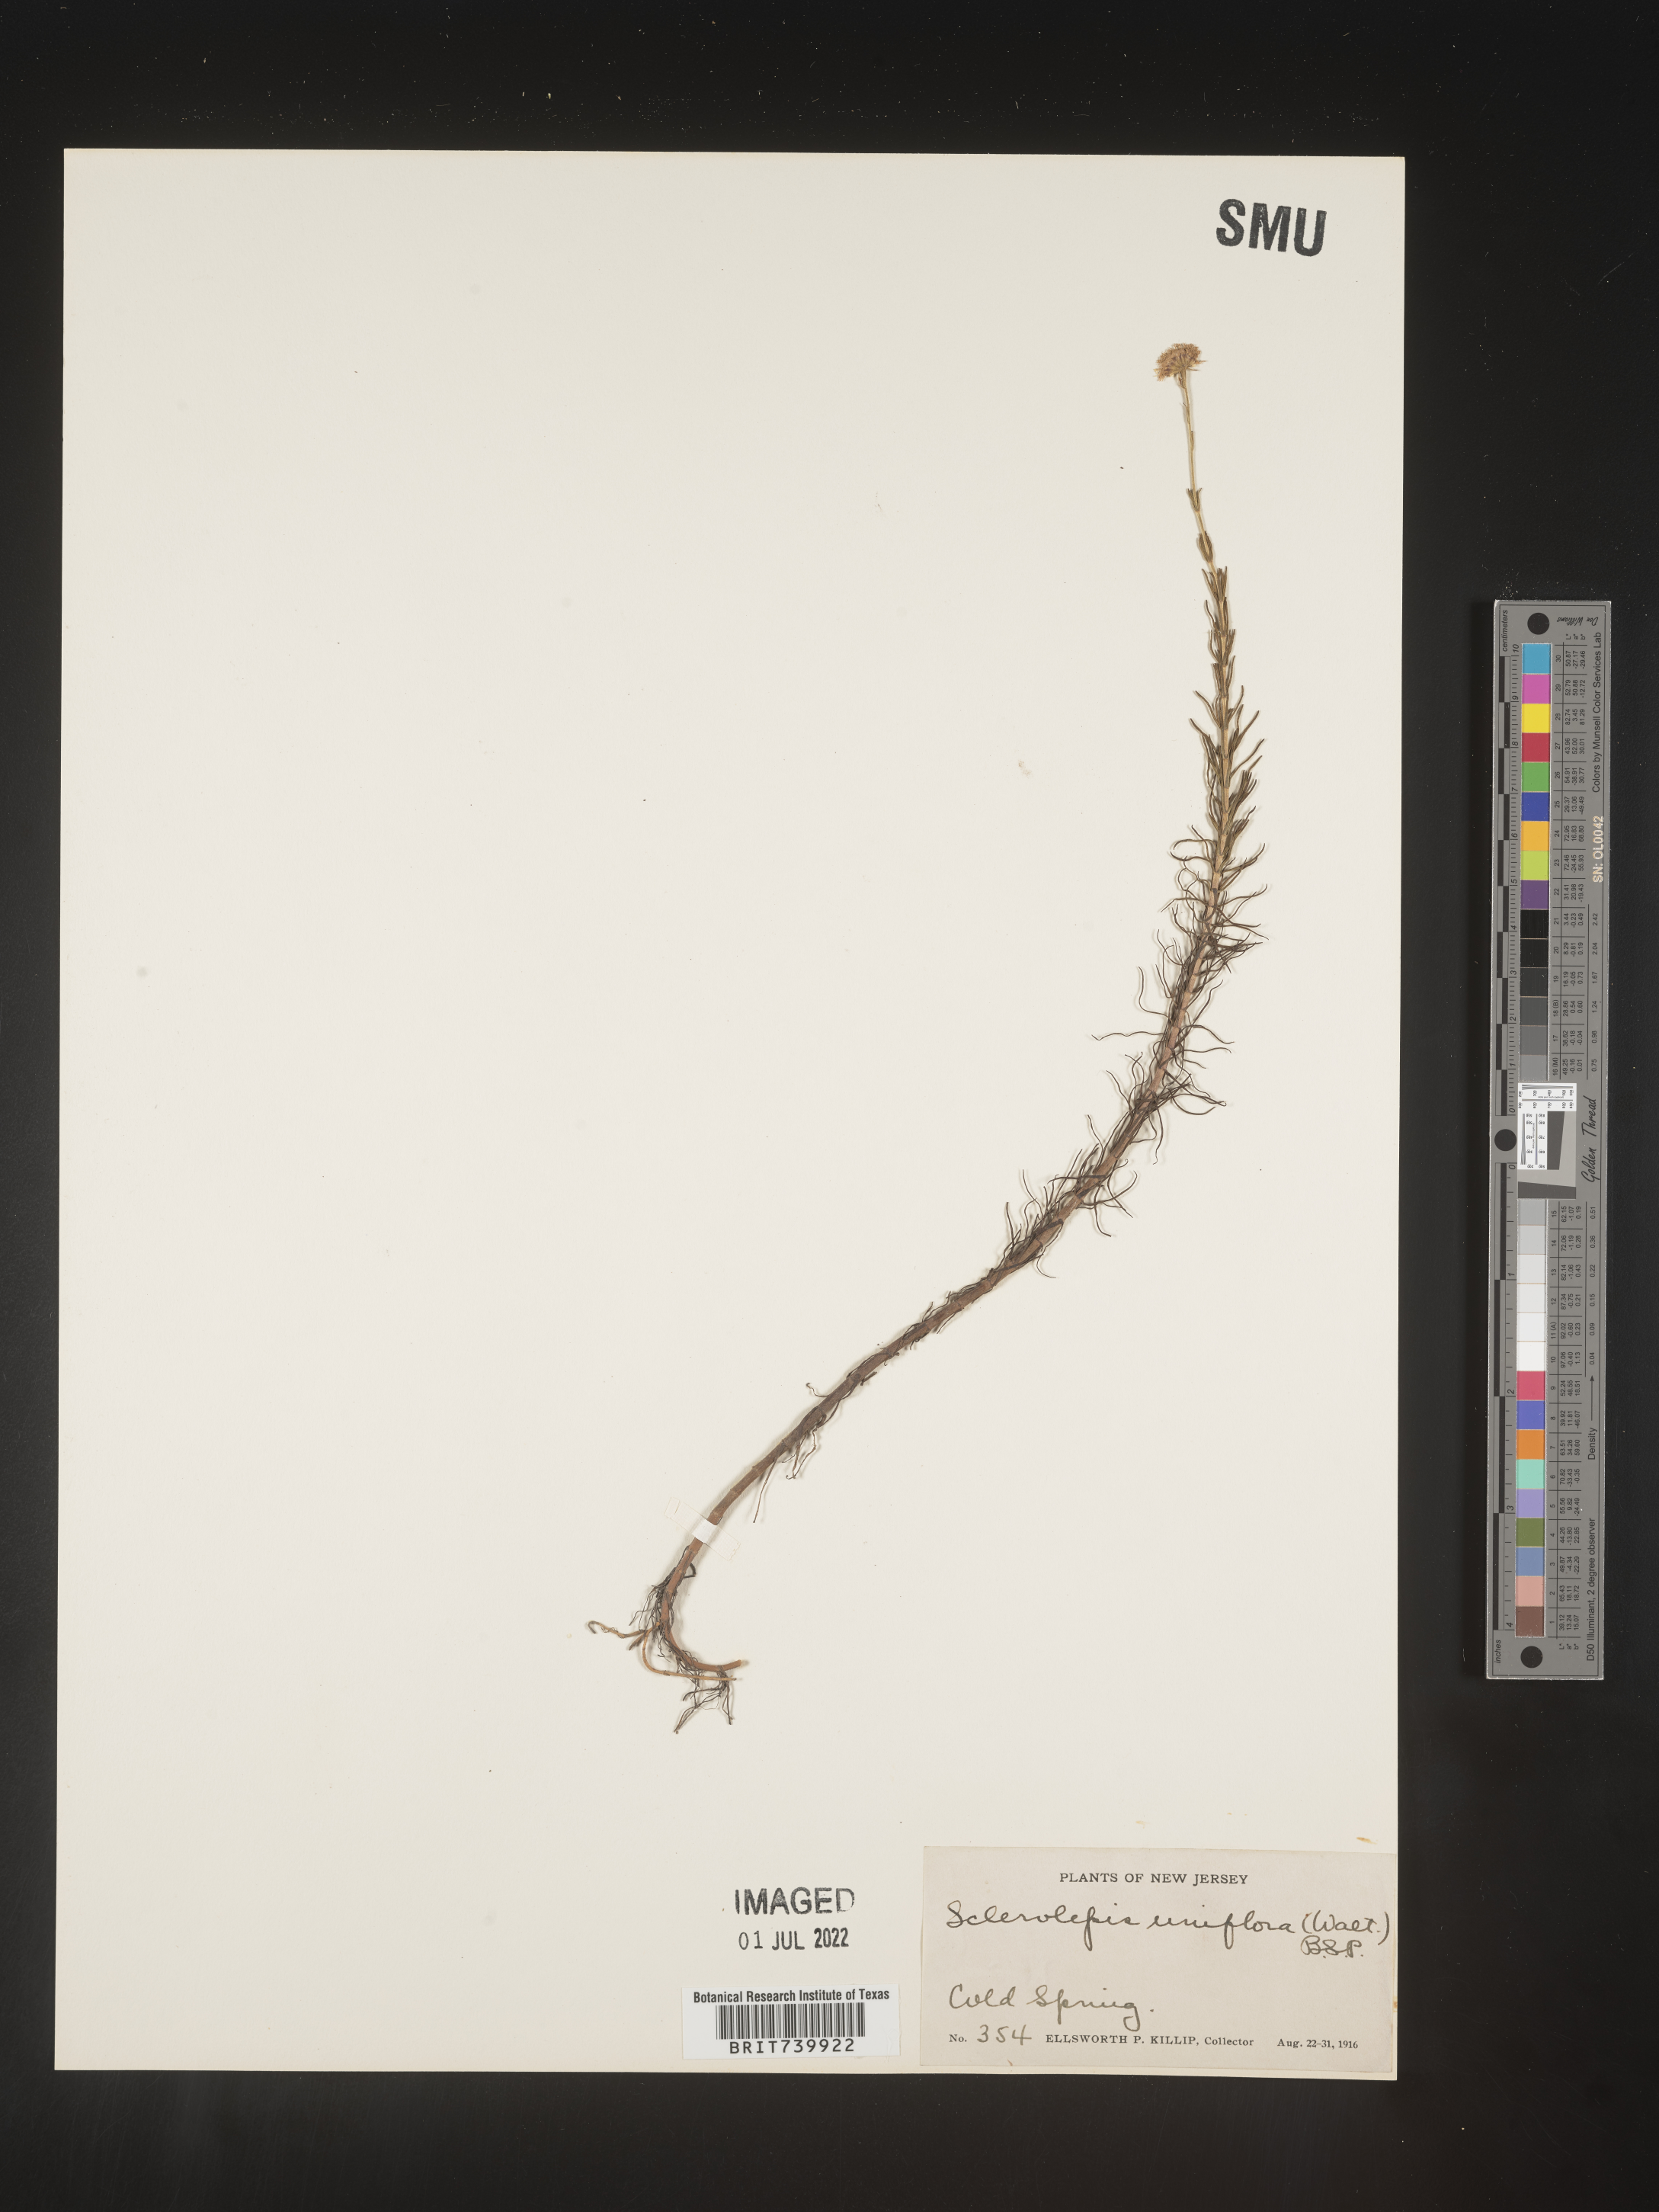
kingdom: Plantae
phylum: Tracheophyta
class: Magnoliopsida
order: Asterales
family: Asteraceae
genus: Sclerolepis
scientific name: Sclerolepis
